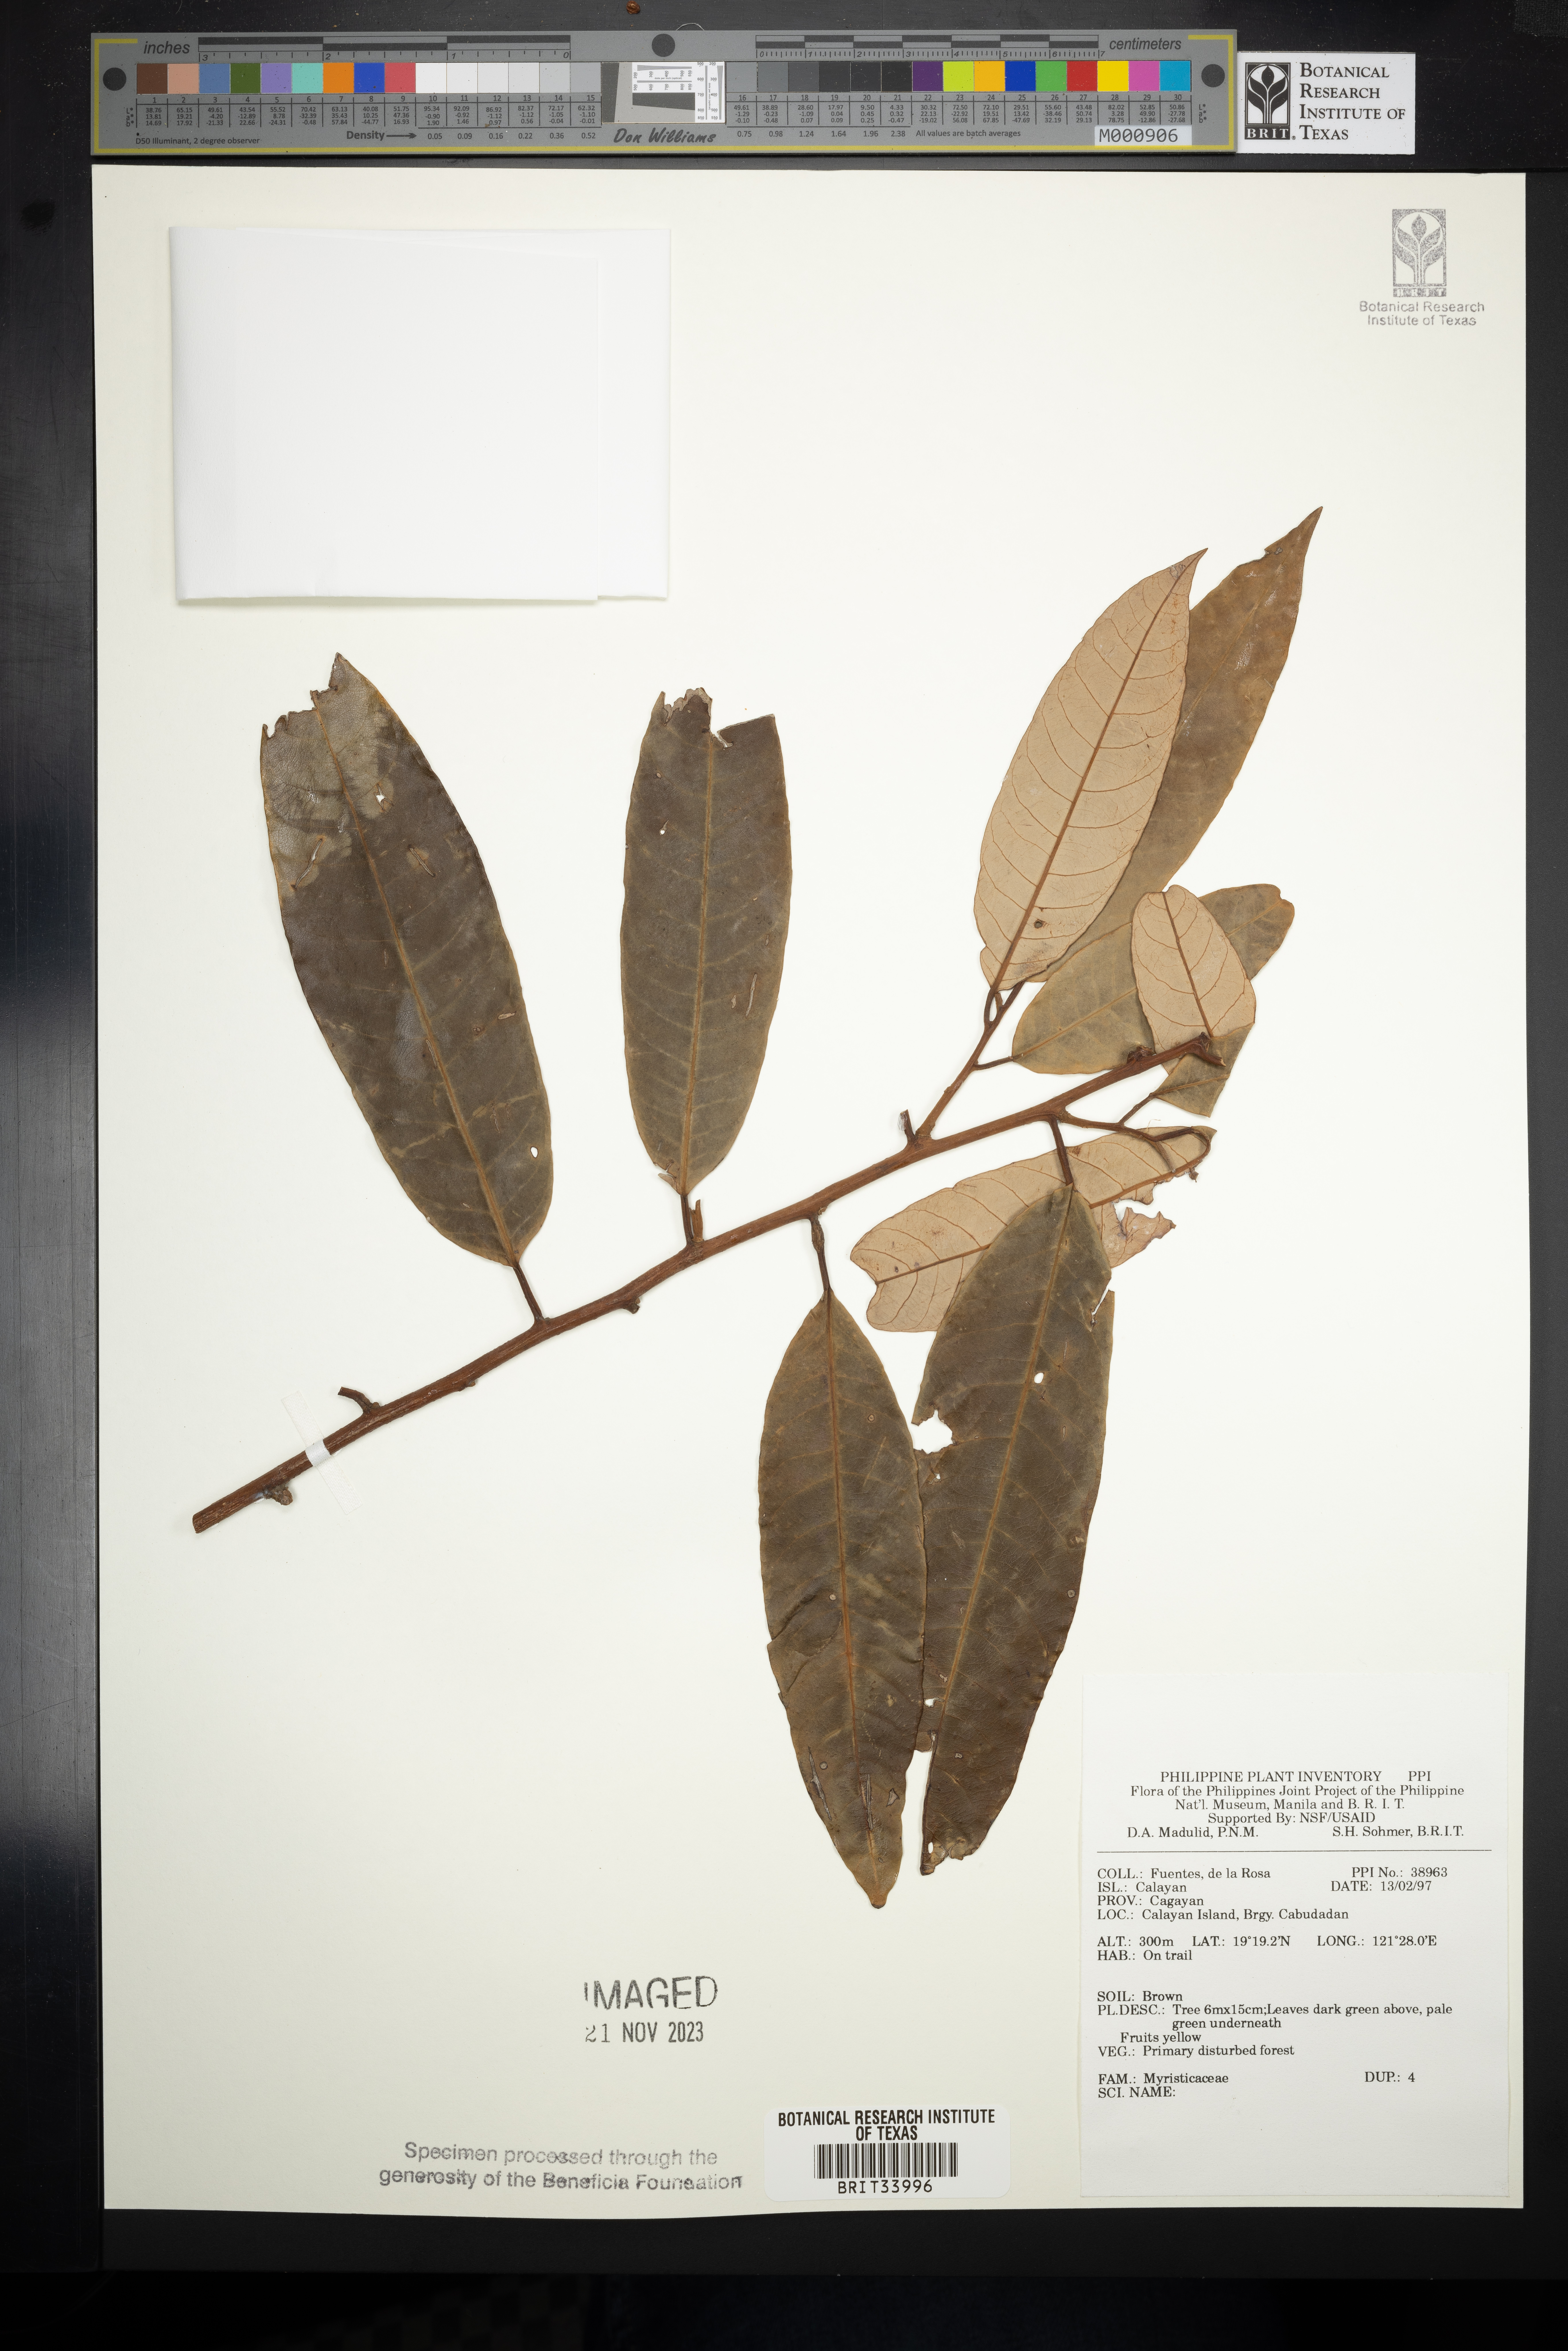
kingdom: Plantae
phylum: Tracheophyta
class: Magnoliopsida
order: Magnoliales
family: Myristicaceae
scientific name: Myristicaceae
